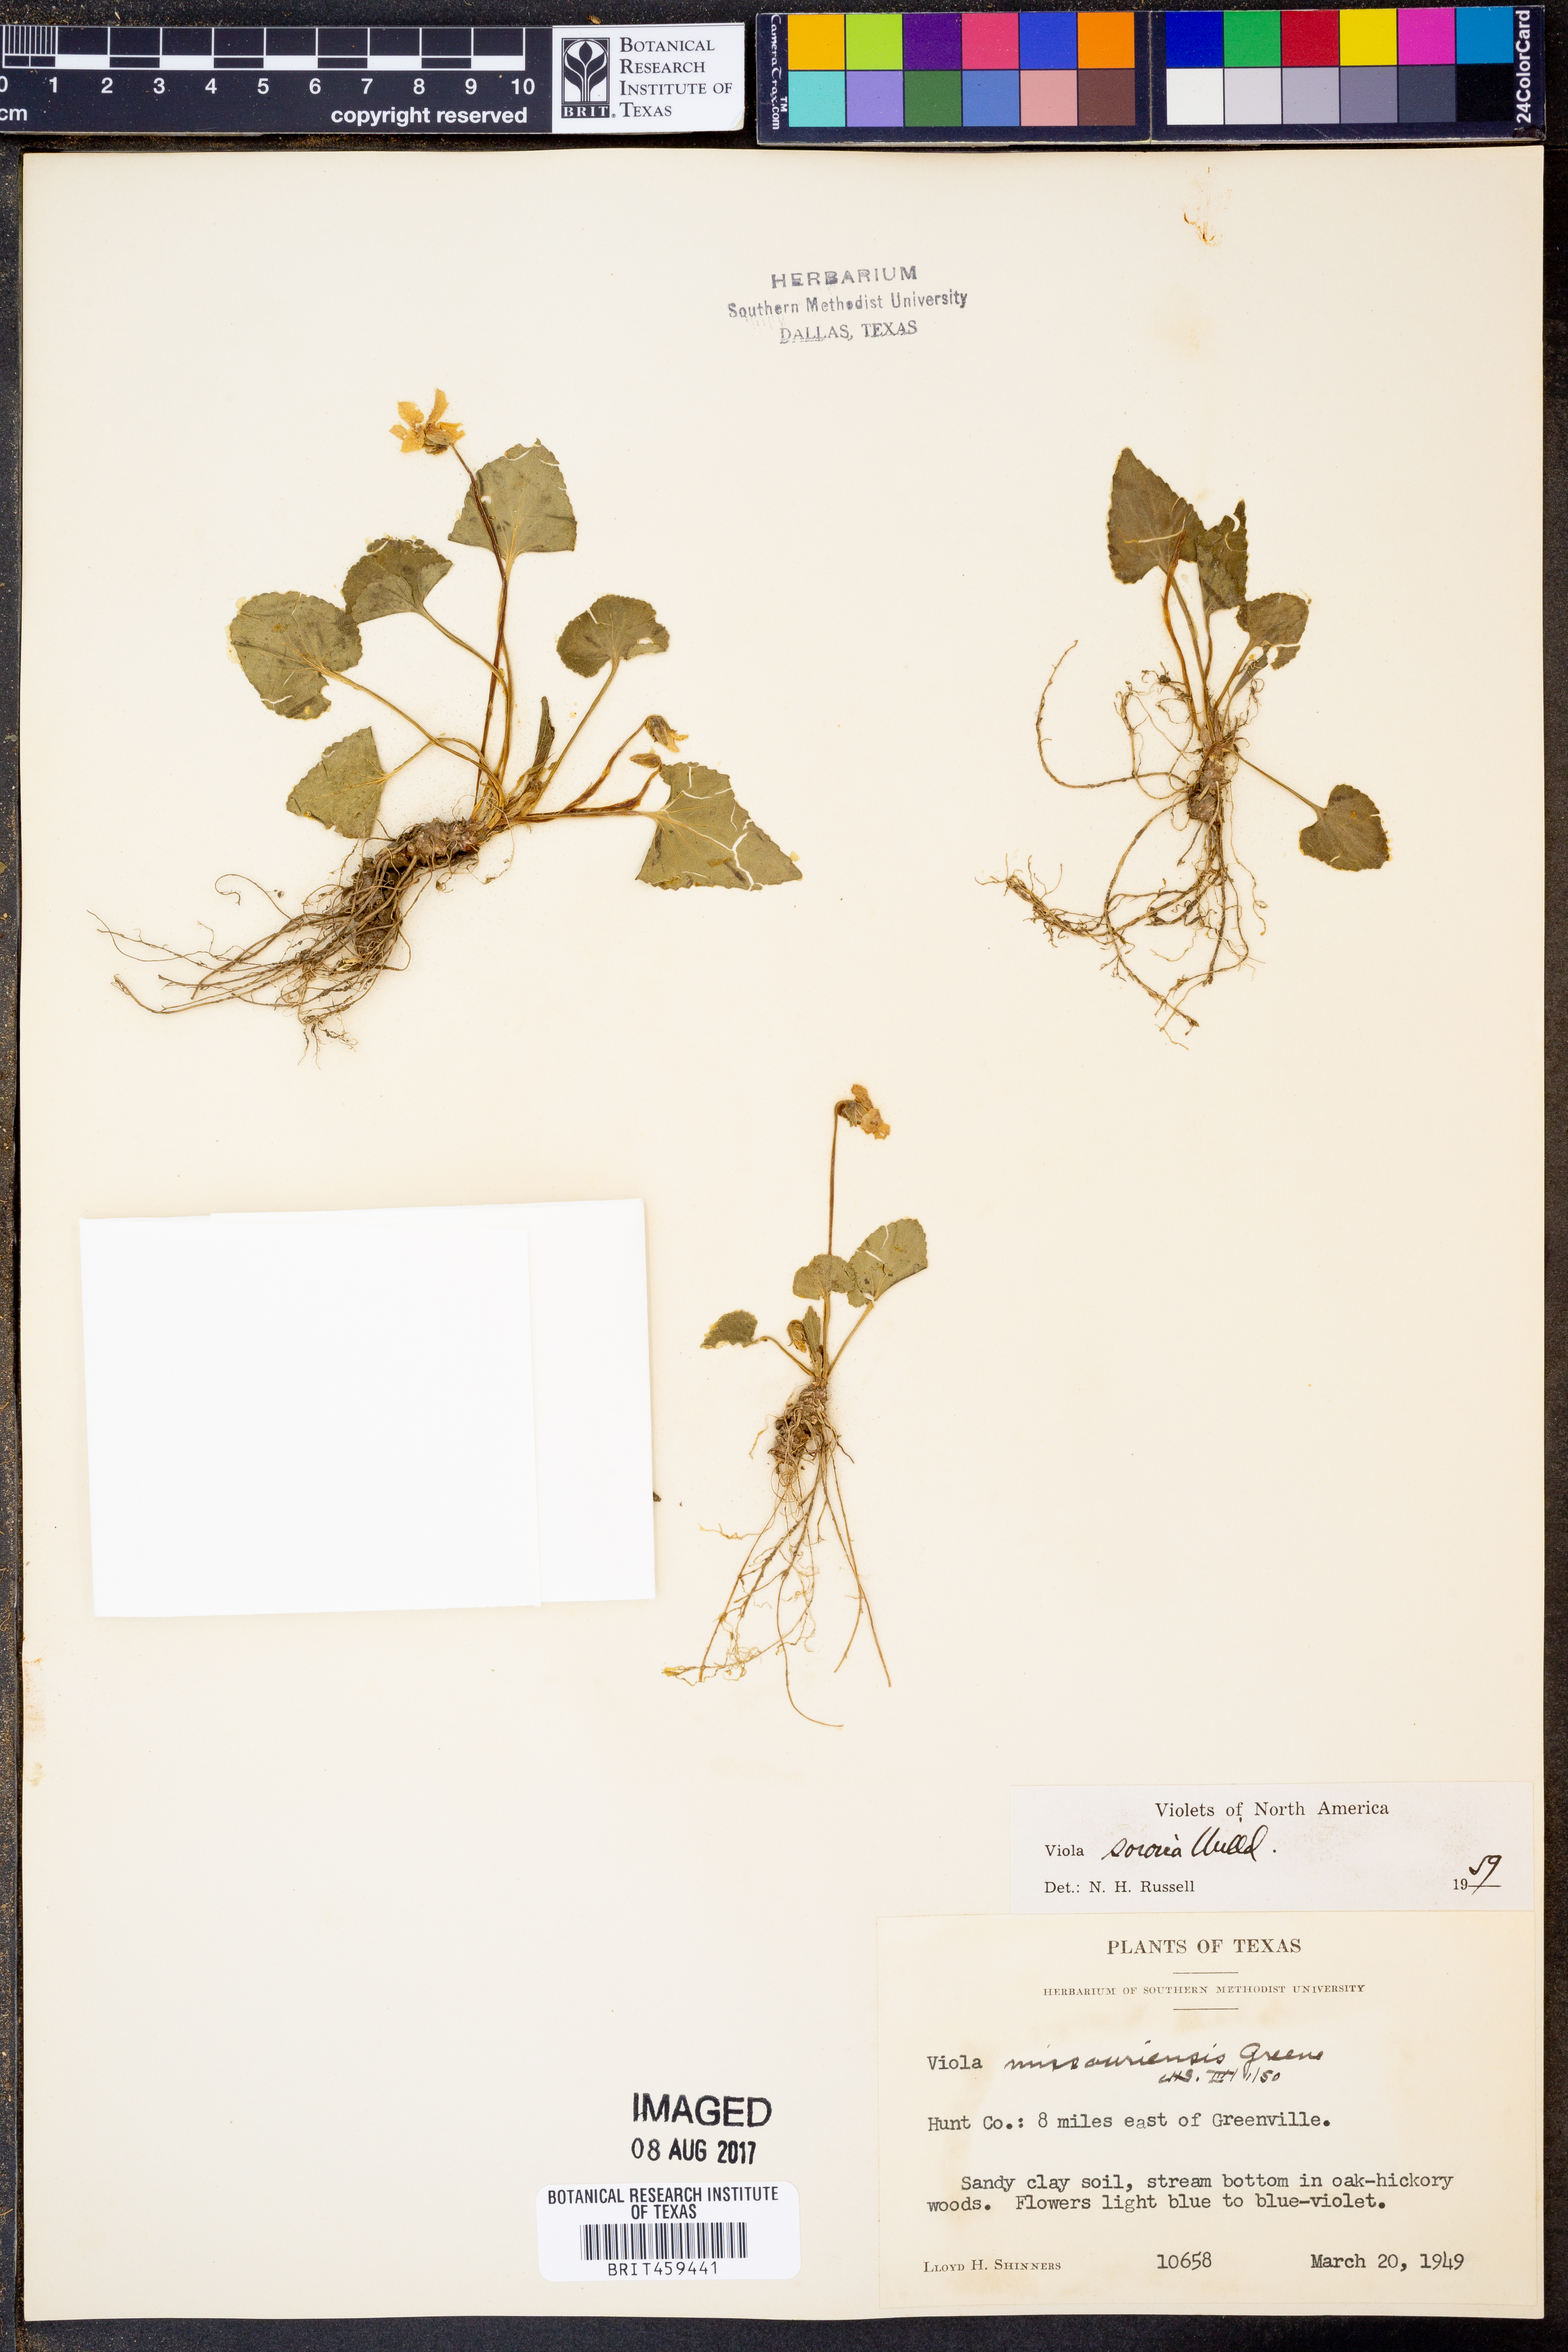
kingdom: Plantae
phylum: Tracheophyta
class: Magnoliopsida
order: Malpighiales
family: Violaceae
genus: Viola
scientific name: Viola sororia
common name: Dooryard violet
